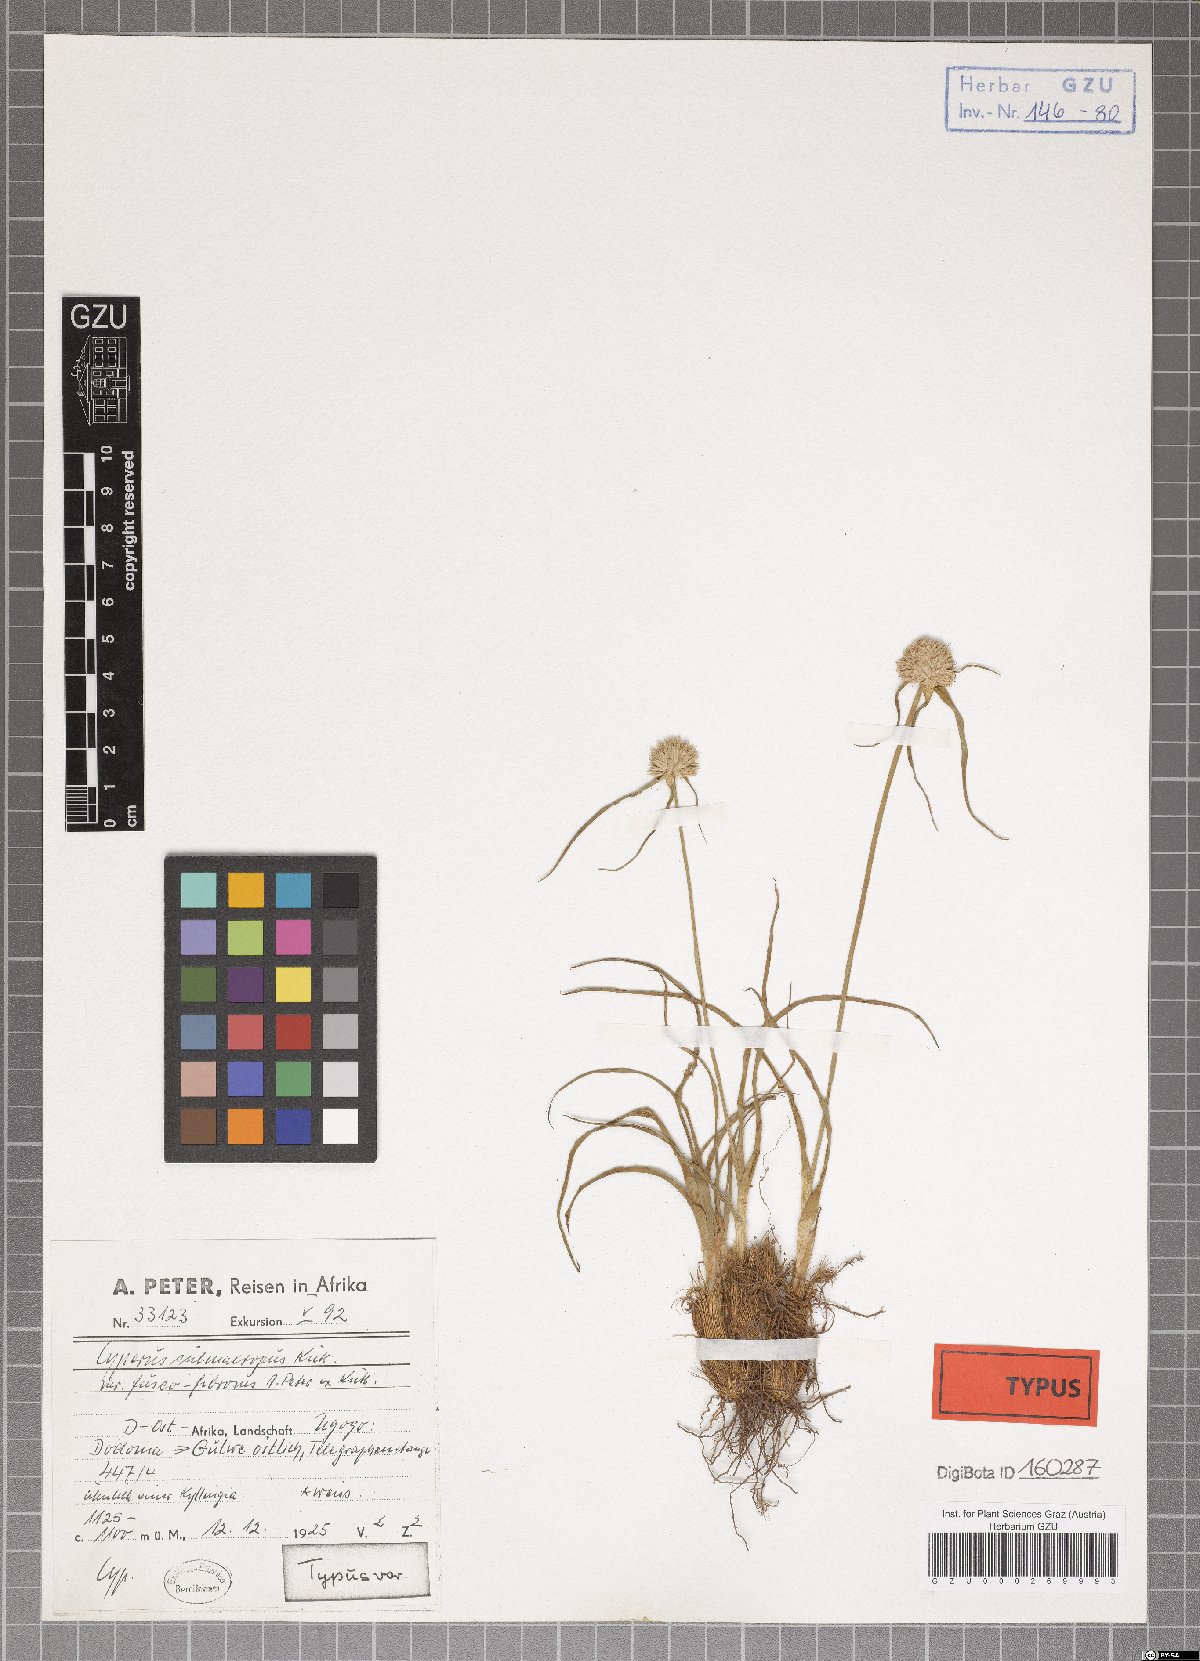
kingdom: Plantae
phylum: Tracheophyta
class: Liliopsida
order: Poales
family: Cyperaceae
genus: Cyperus
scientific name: Cyperus mollipes
